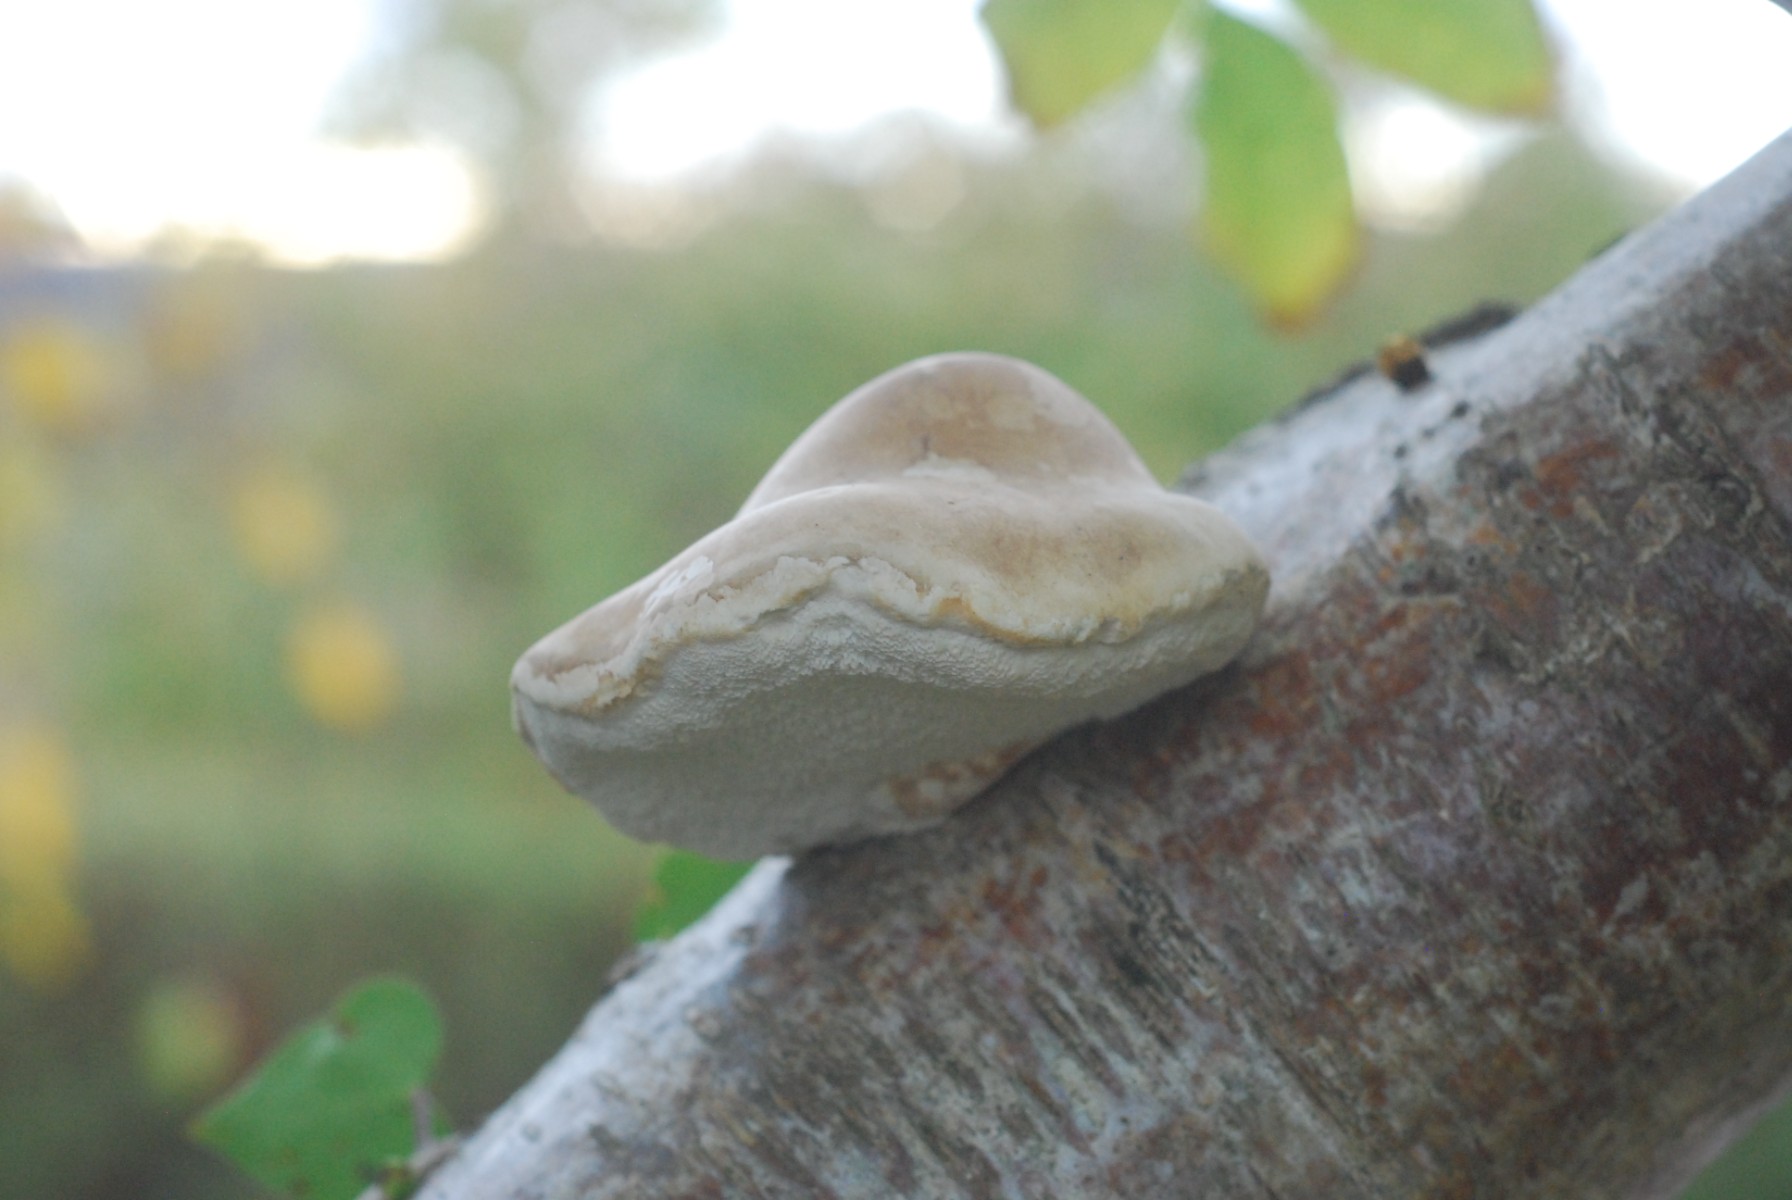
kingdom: Fungi
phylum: Basidiomycota
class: Agaricomycetes
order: Polyporales
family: Fomitopsidaceae
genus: Fomitopsis
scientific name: Fomitopsis betulina
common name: birkeporesvamp
